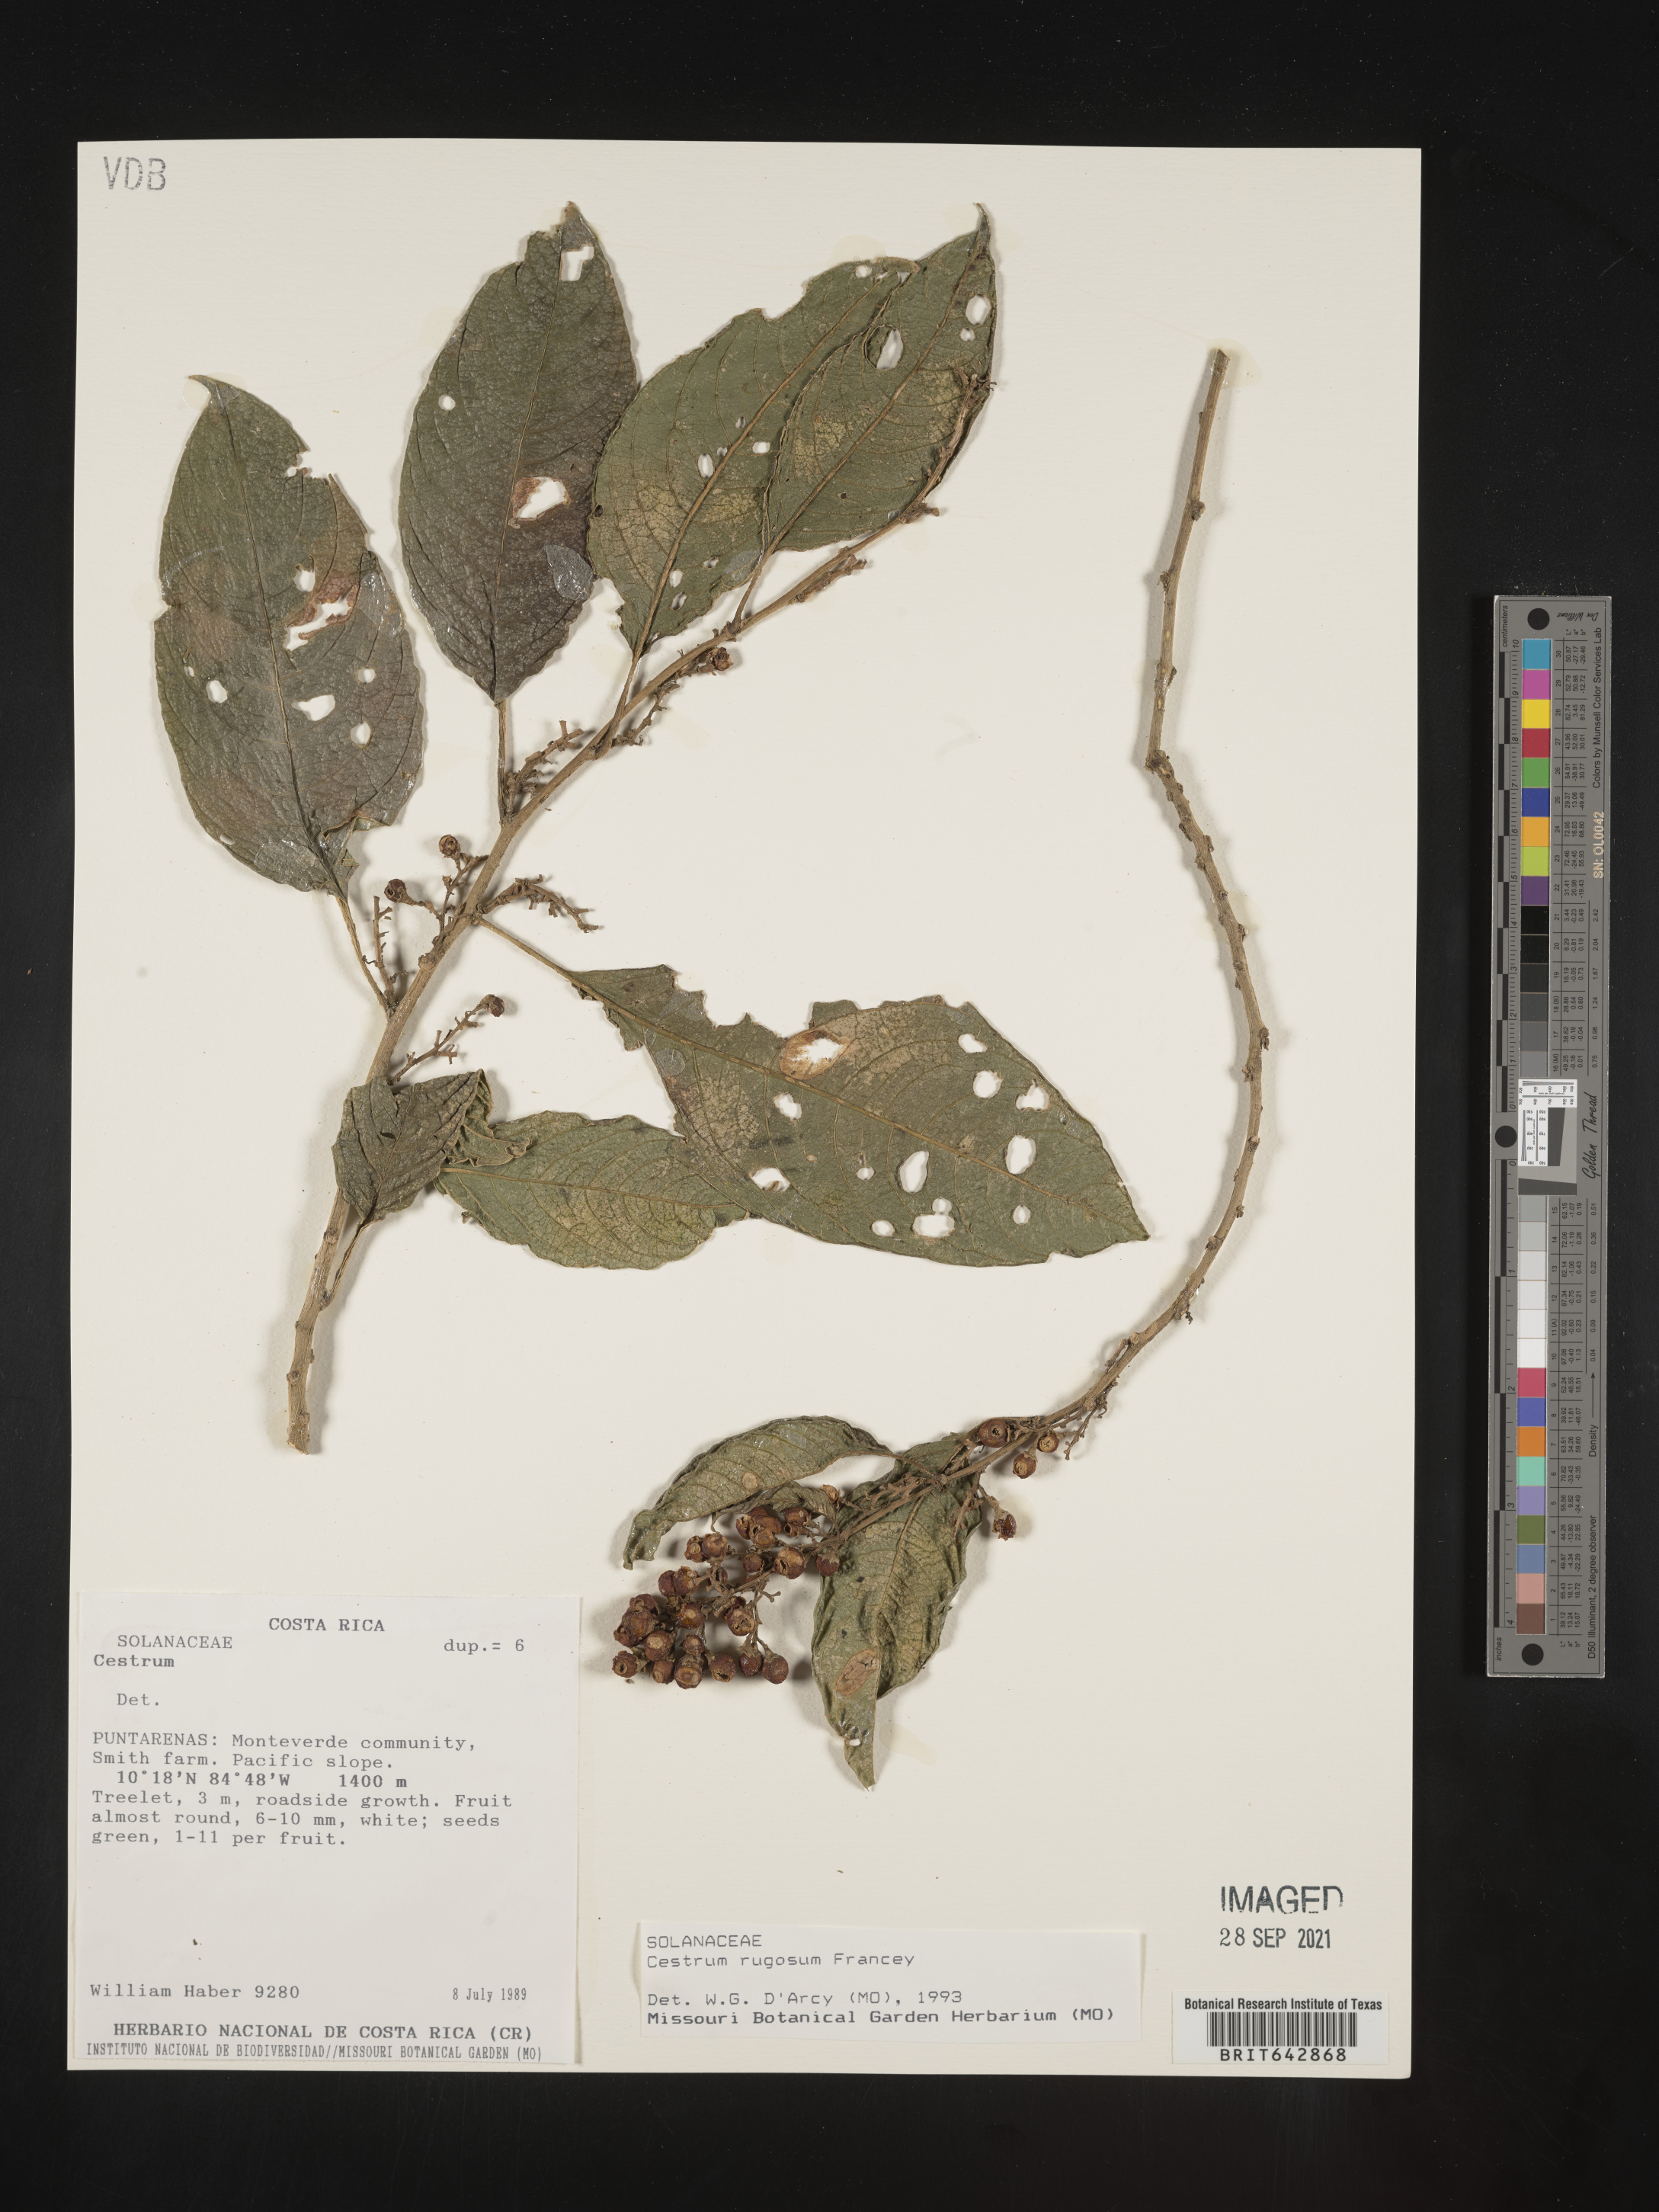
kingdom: Plantae
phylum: Tracheophyta
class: Magnoliopsida
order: Solanales
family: Solanaceae
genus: Cestrum
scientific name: Cestrum
